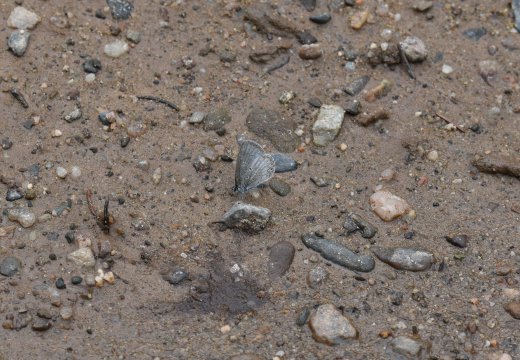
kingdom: Animalia
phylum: Arthropoda
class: Insecta
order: Lepidoptera
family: Lycaenidae
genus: Celastrina
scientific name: Celastrina lucia
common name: Northern Spring Azure
